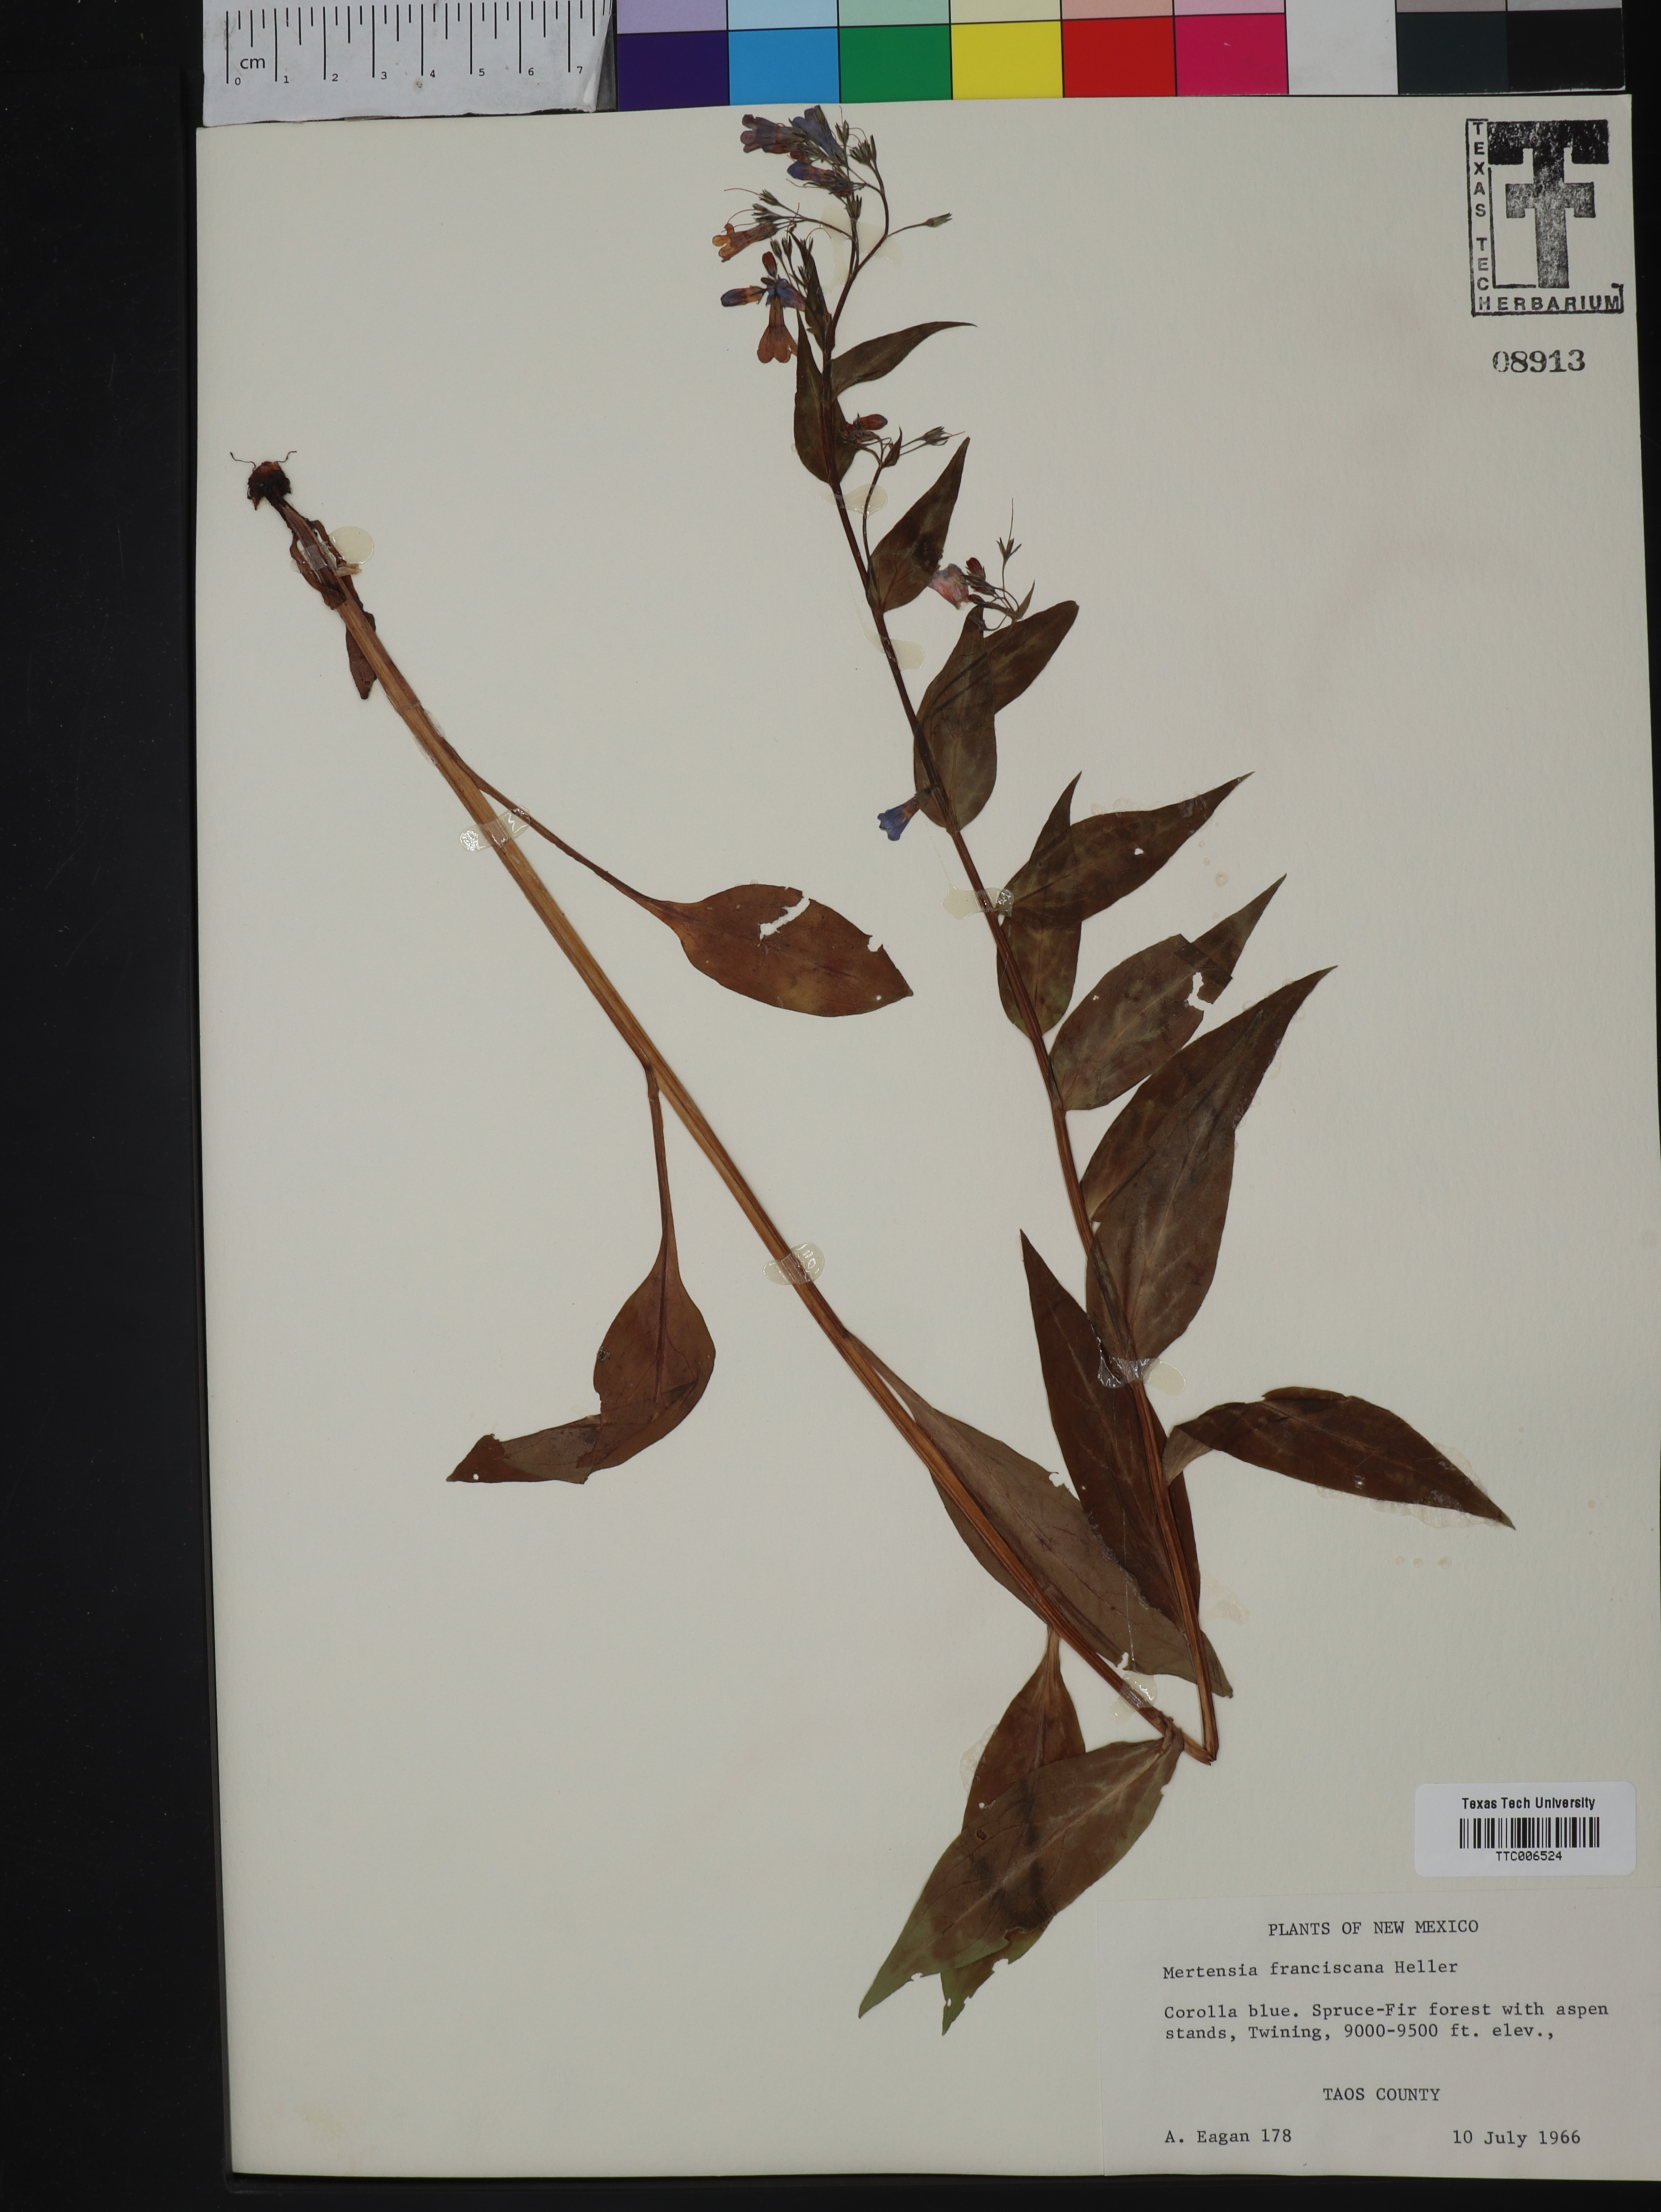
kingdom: Plantae
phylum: Tracheophyta
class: Magnoliopsida
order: Boraginales
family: Boraginaceae
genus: Mertensia
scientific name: Mertensia franciscana
